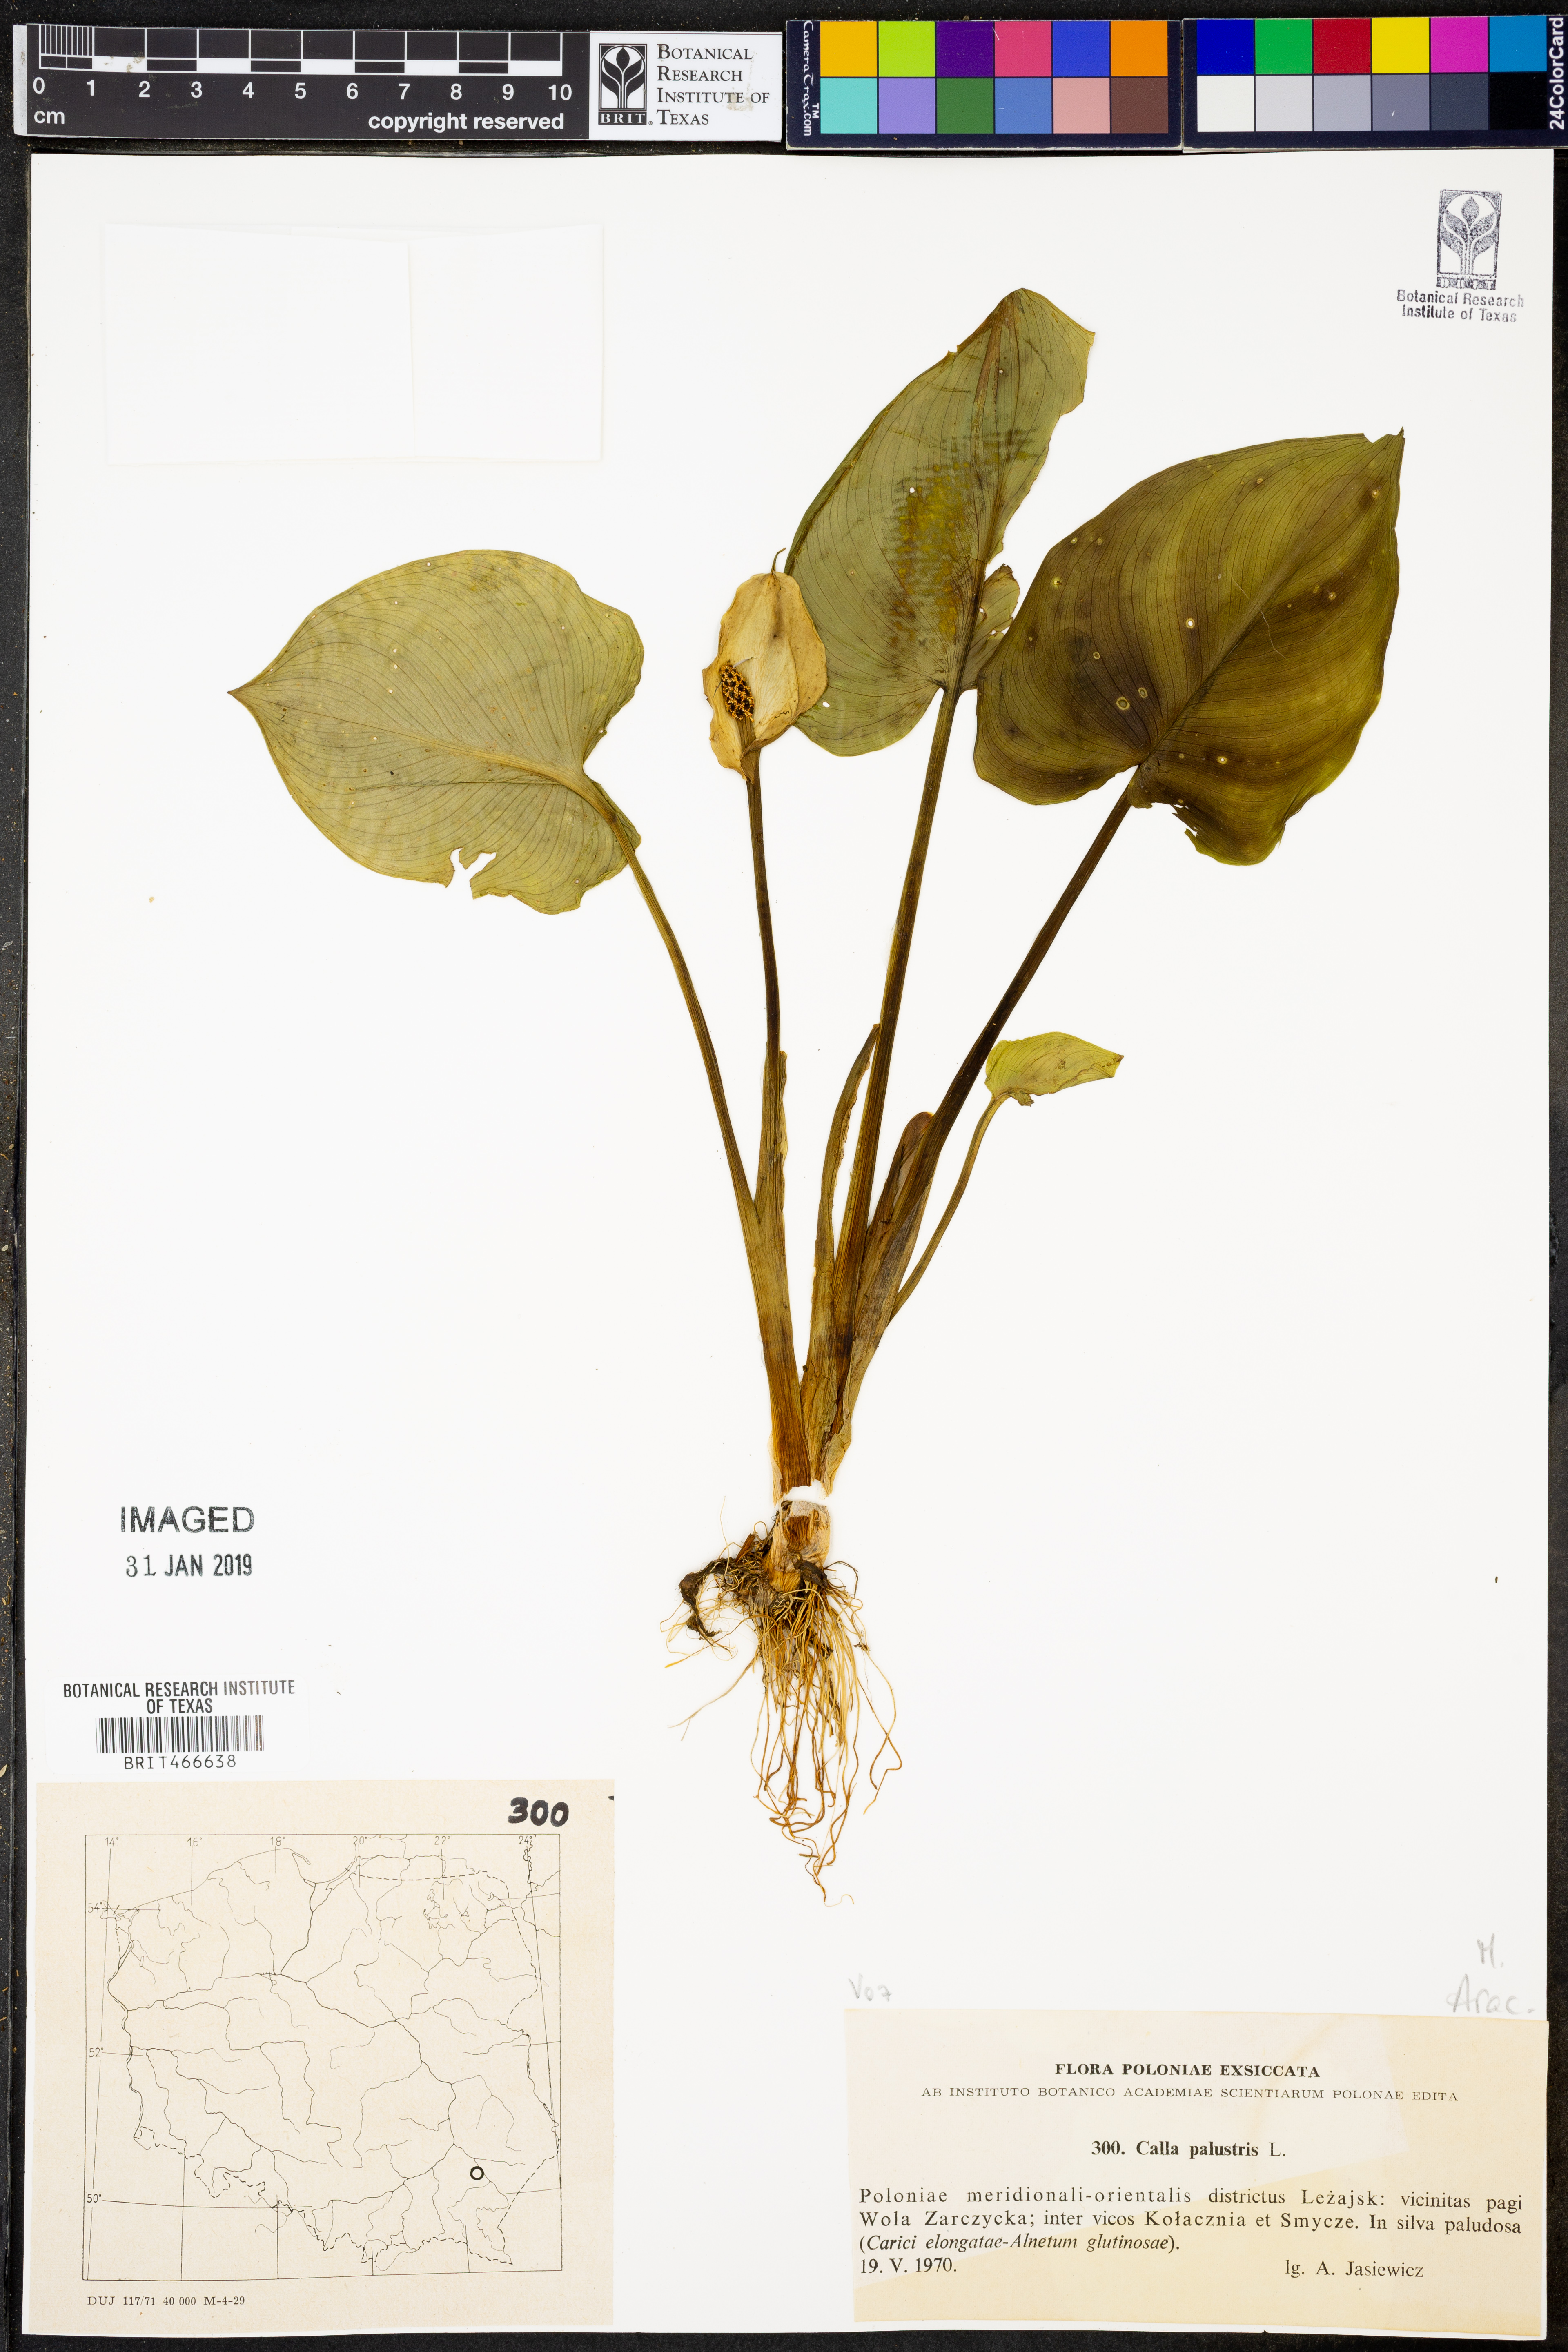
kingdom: Plantae
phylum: Tracheophyta
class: Liliopsida
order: Alismatales
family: Araceae
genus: Calla
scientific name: Calla palustris
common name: Bog arum
